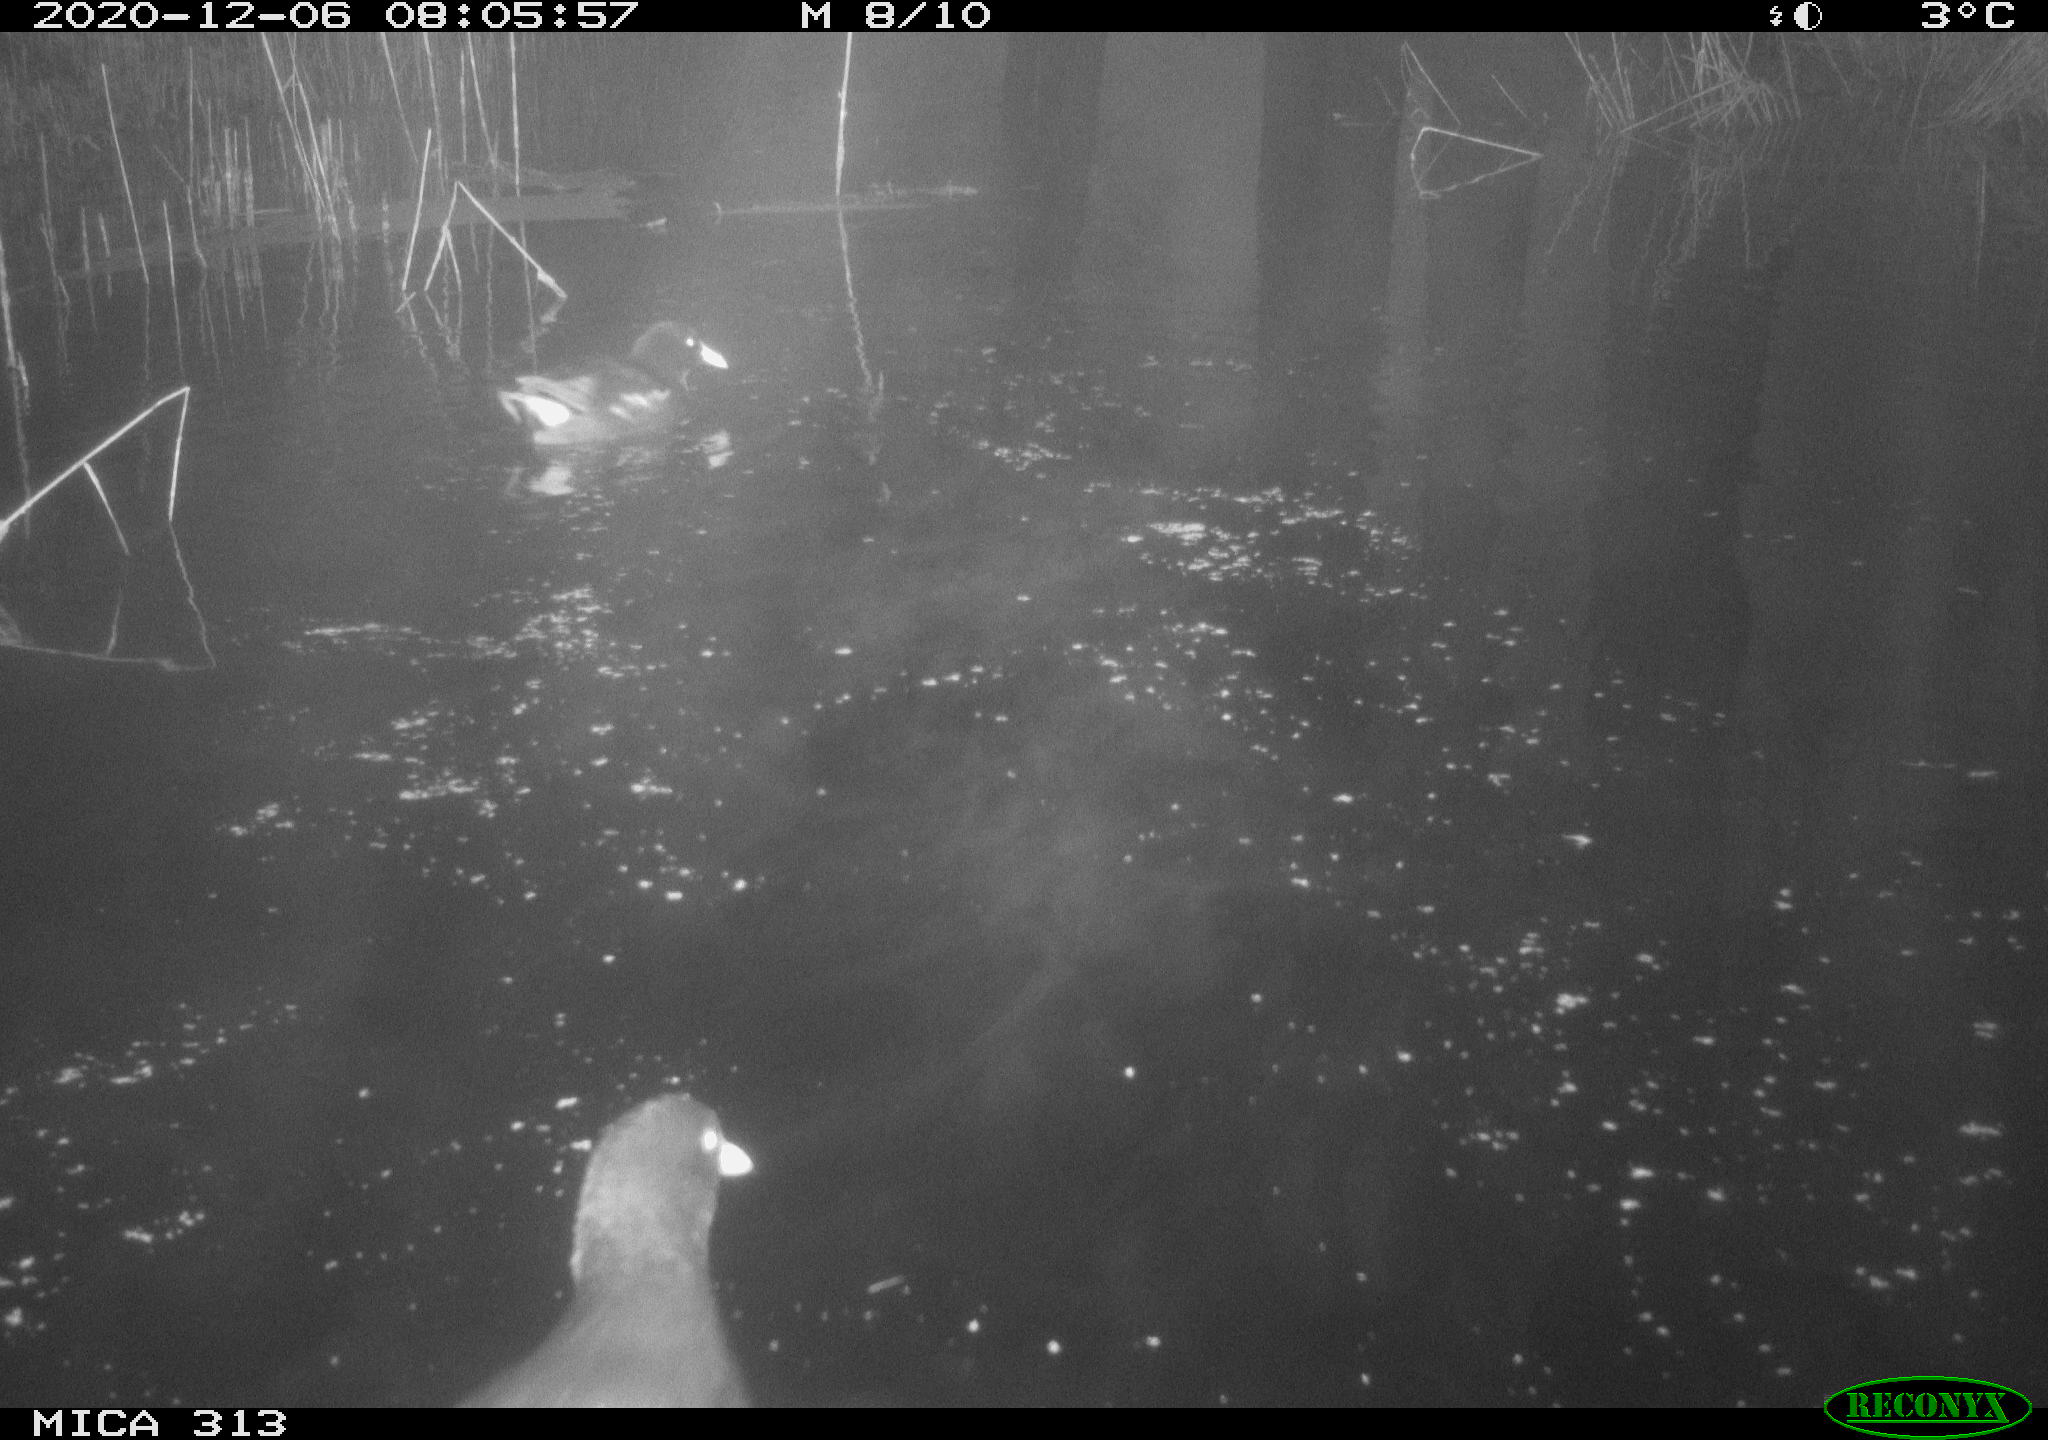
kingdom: Animalia
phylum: Chordata
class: Aves
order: Gruiformes
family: Rallidae
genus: Gallinula
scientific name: Gallinula chloropus
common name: Common moorhen
